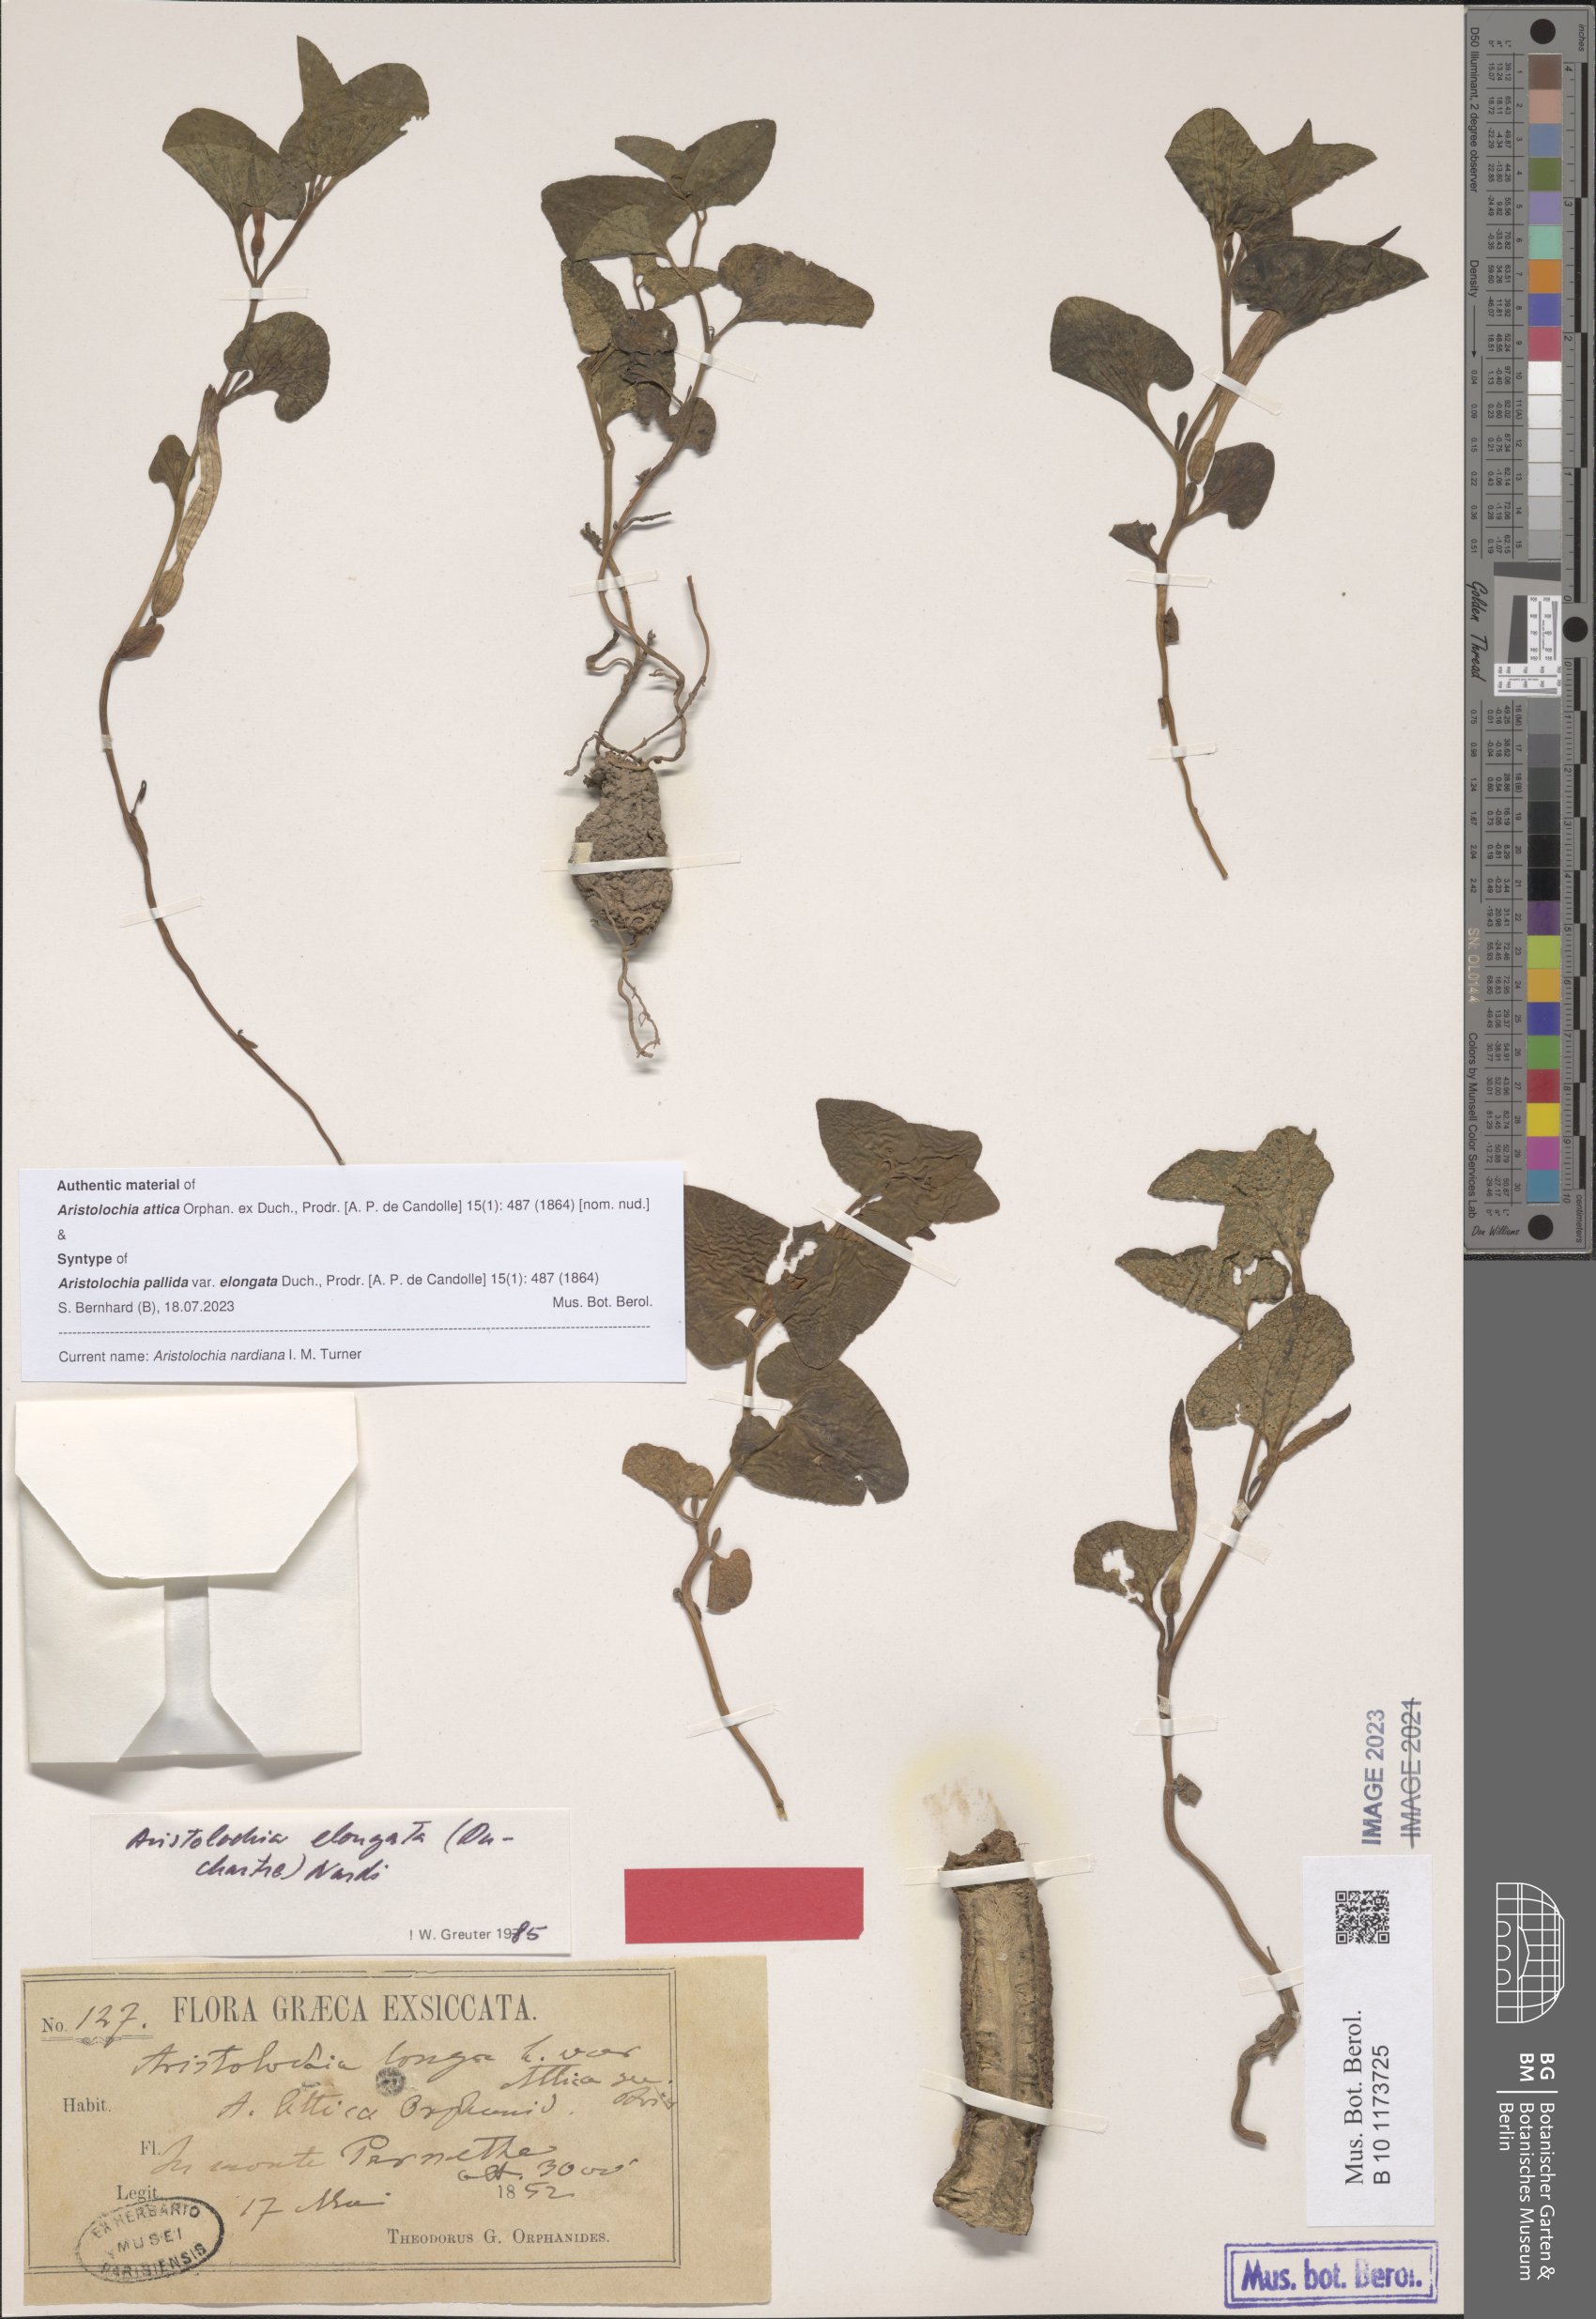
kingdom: Plantae
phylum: Tracheophyta
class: Magnoliopsida
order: Piperales
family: Aristolochiaceae
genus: Aristolochia
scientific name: Aristolochia nardiana
